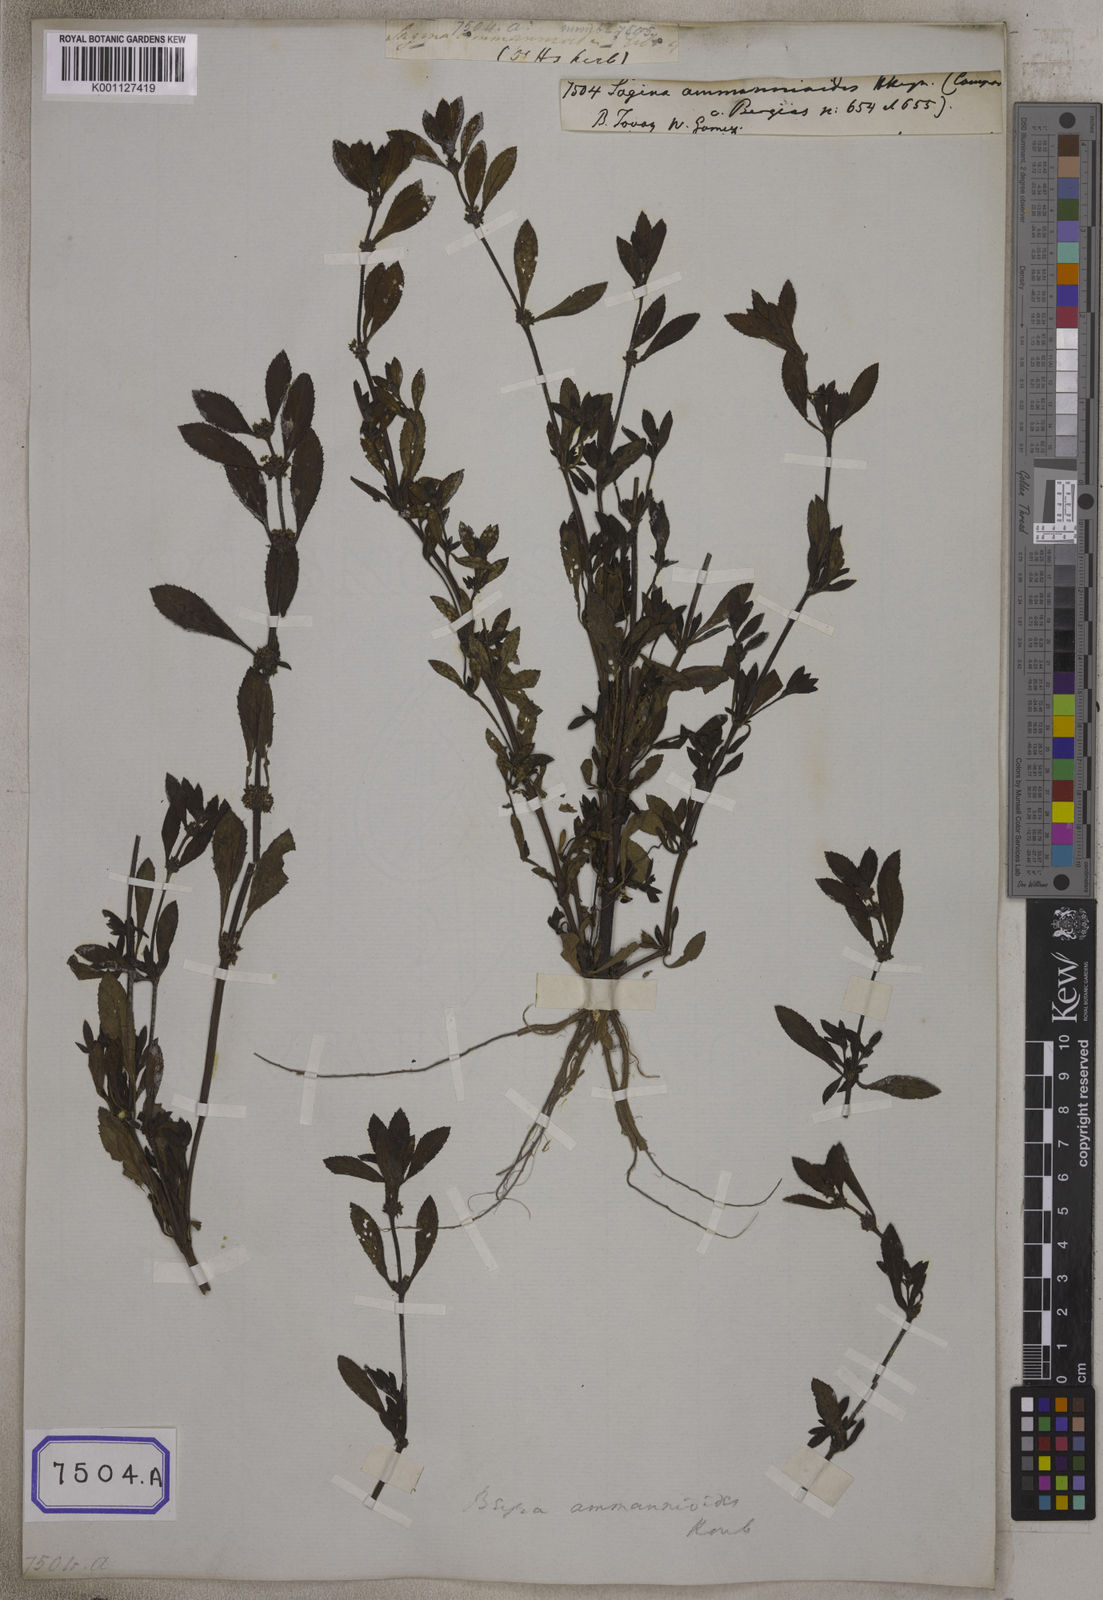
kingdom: Plantae
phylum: Tracheophyta
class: Magnoliopsida
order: Malpighiales
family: Elatinaceae
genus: Bergia
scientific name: Bergia ammannioides
